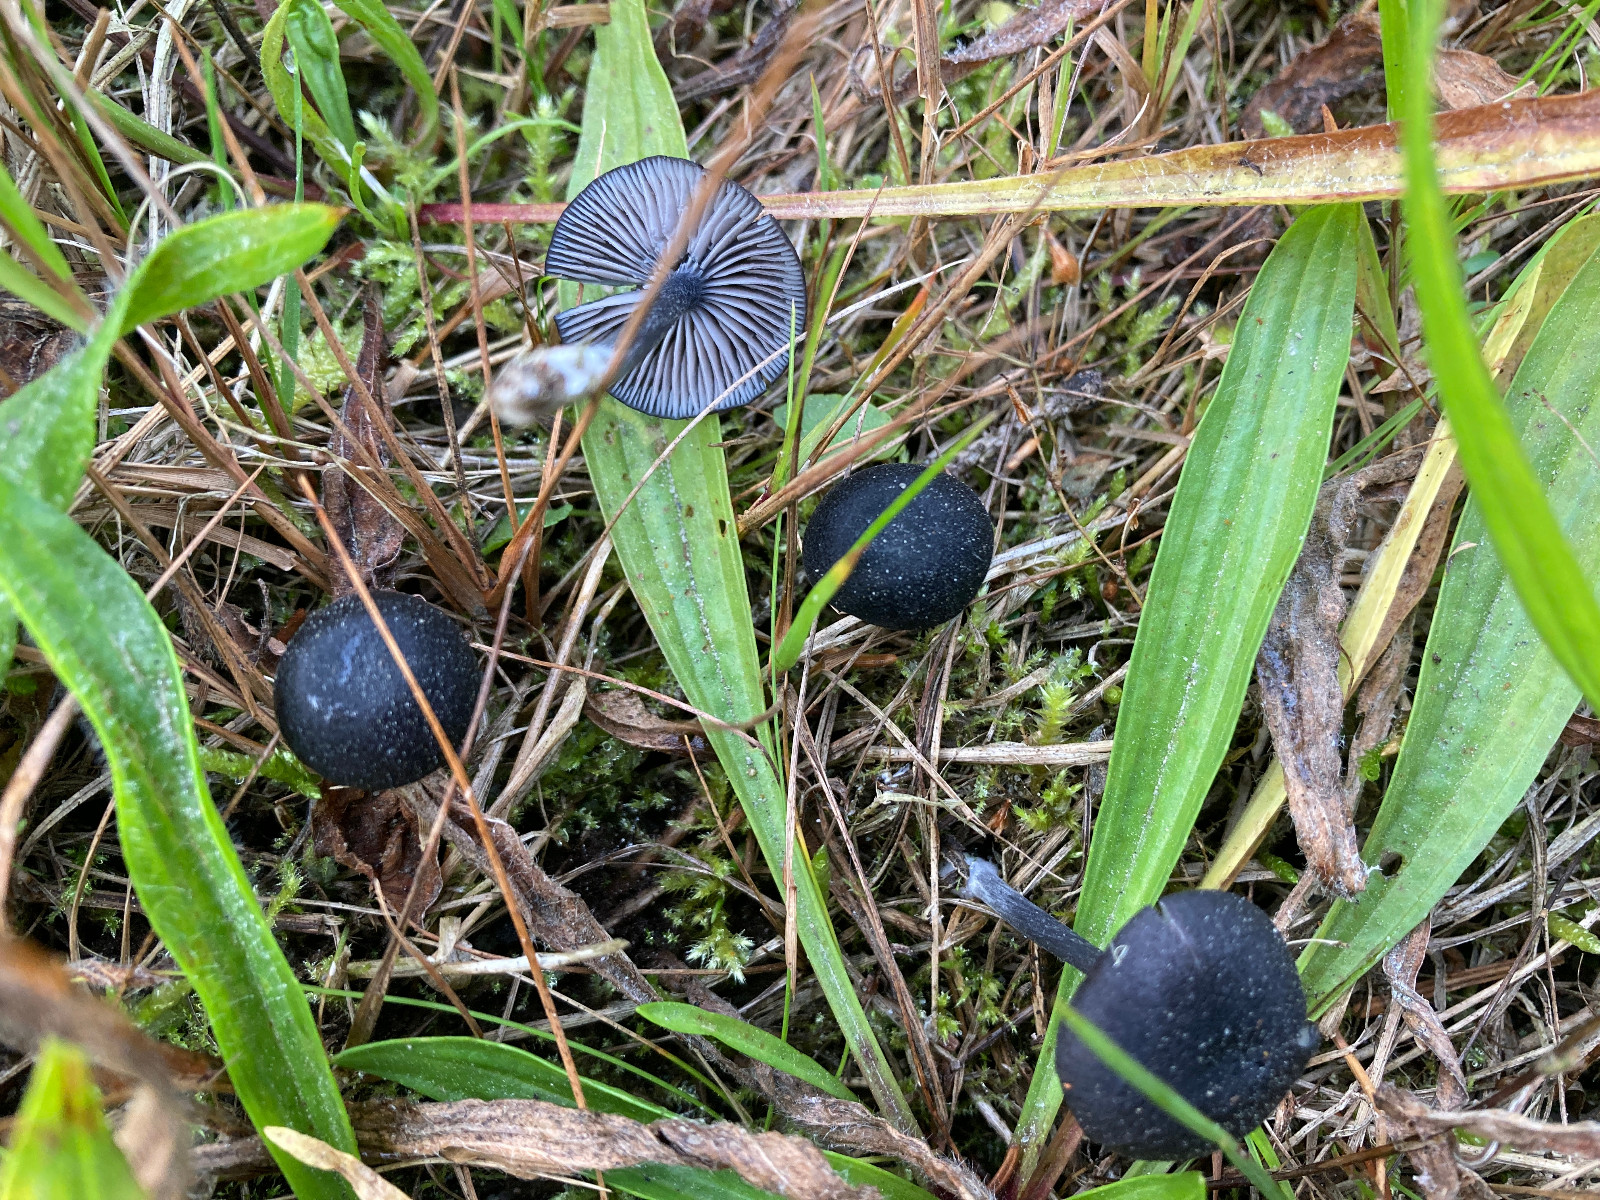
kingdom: Fungi
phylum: Basidiomycota
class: Agaricomycetes
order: Agaricales
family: Entolomataceae
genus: Entoloma
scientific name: Entoloma chalybeum
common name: blåbladet rødblad
